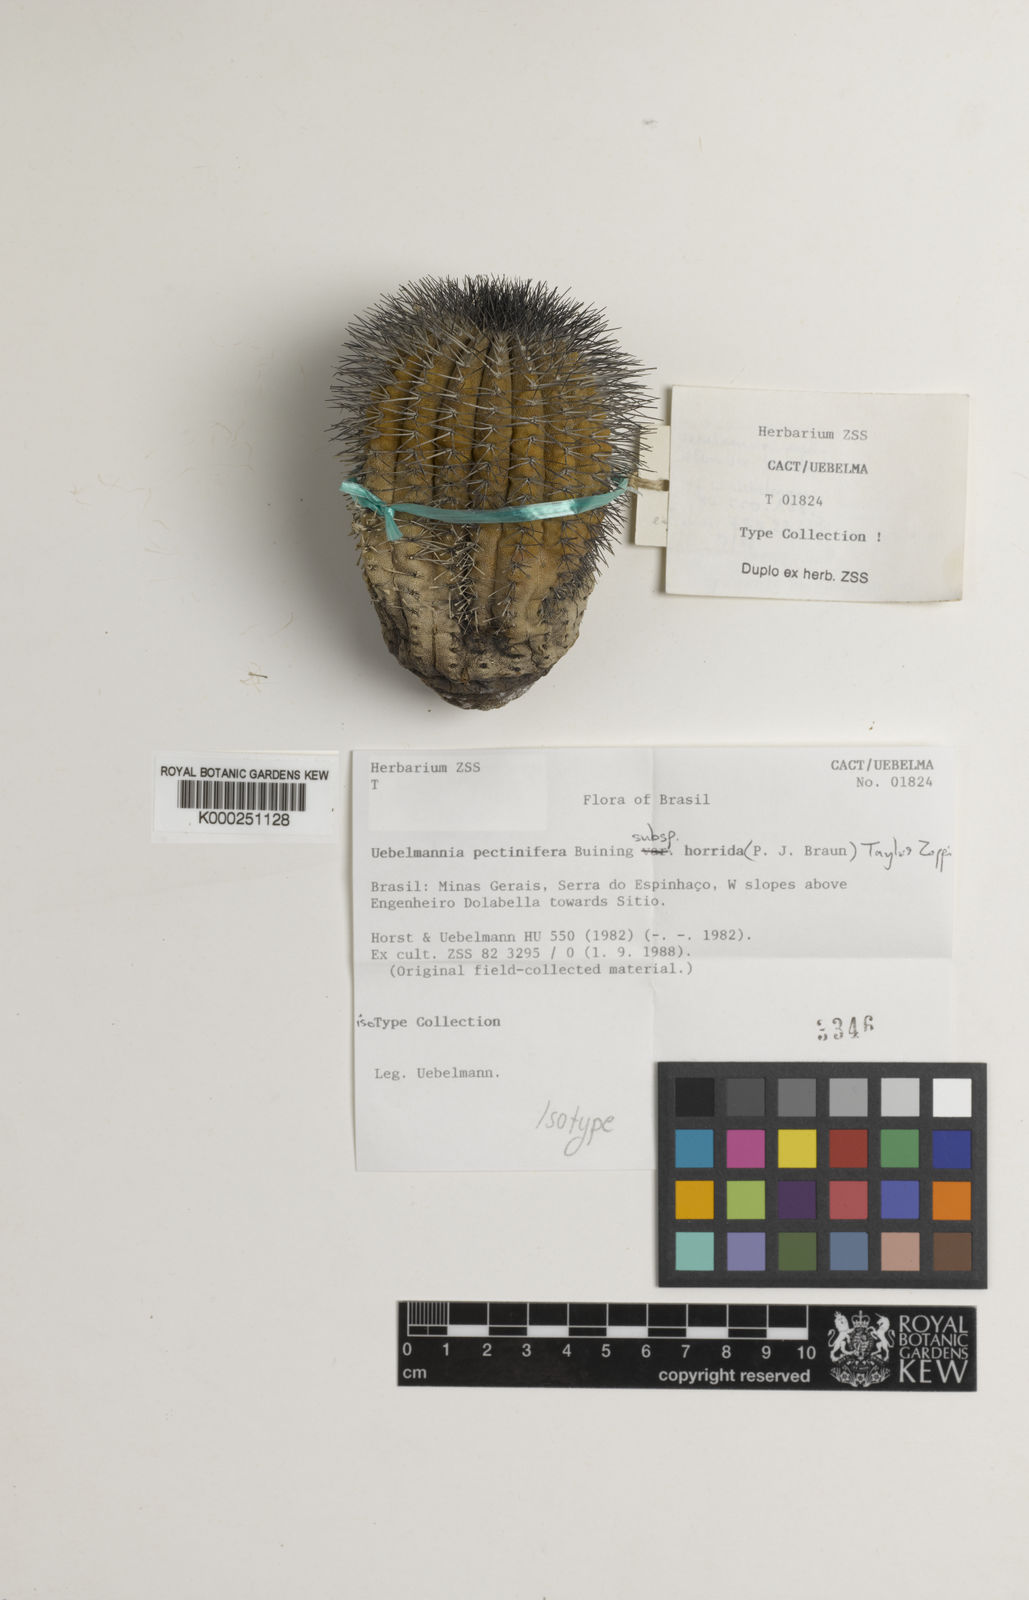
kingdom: Plantae
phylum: Tracheophyta
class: Magnoliopsida
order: Caryophyllales
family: Cactaceae
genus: Uebelmannia
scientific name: Uebelmannia pectinifera
